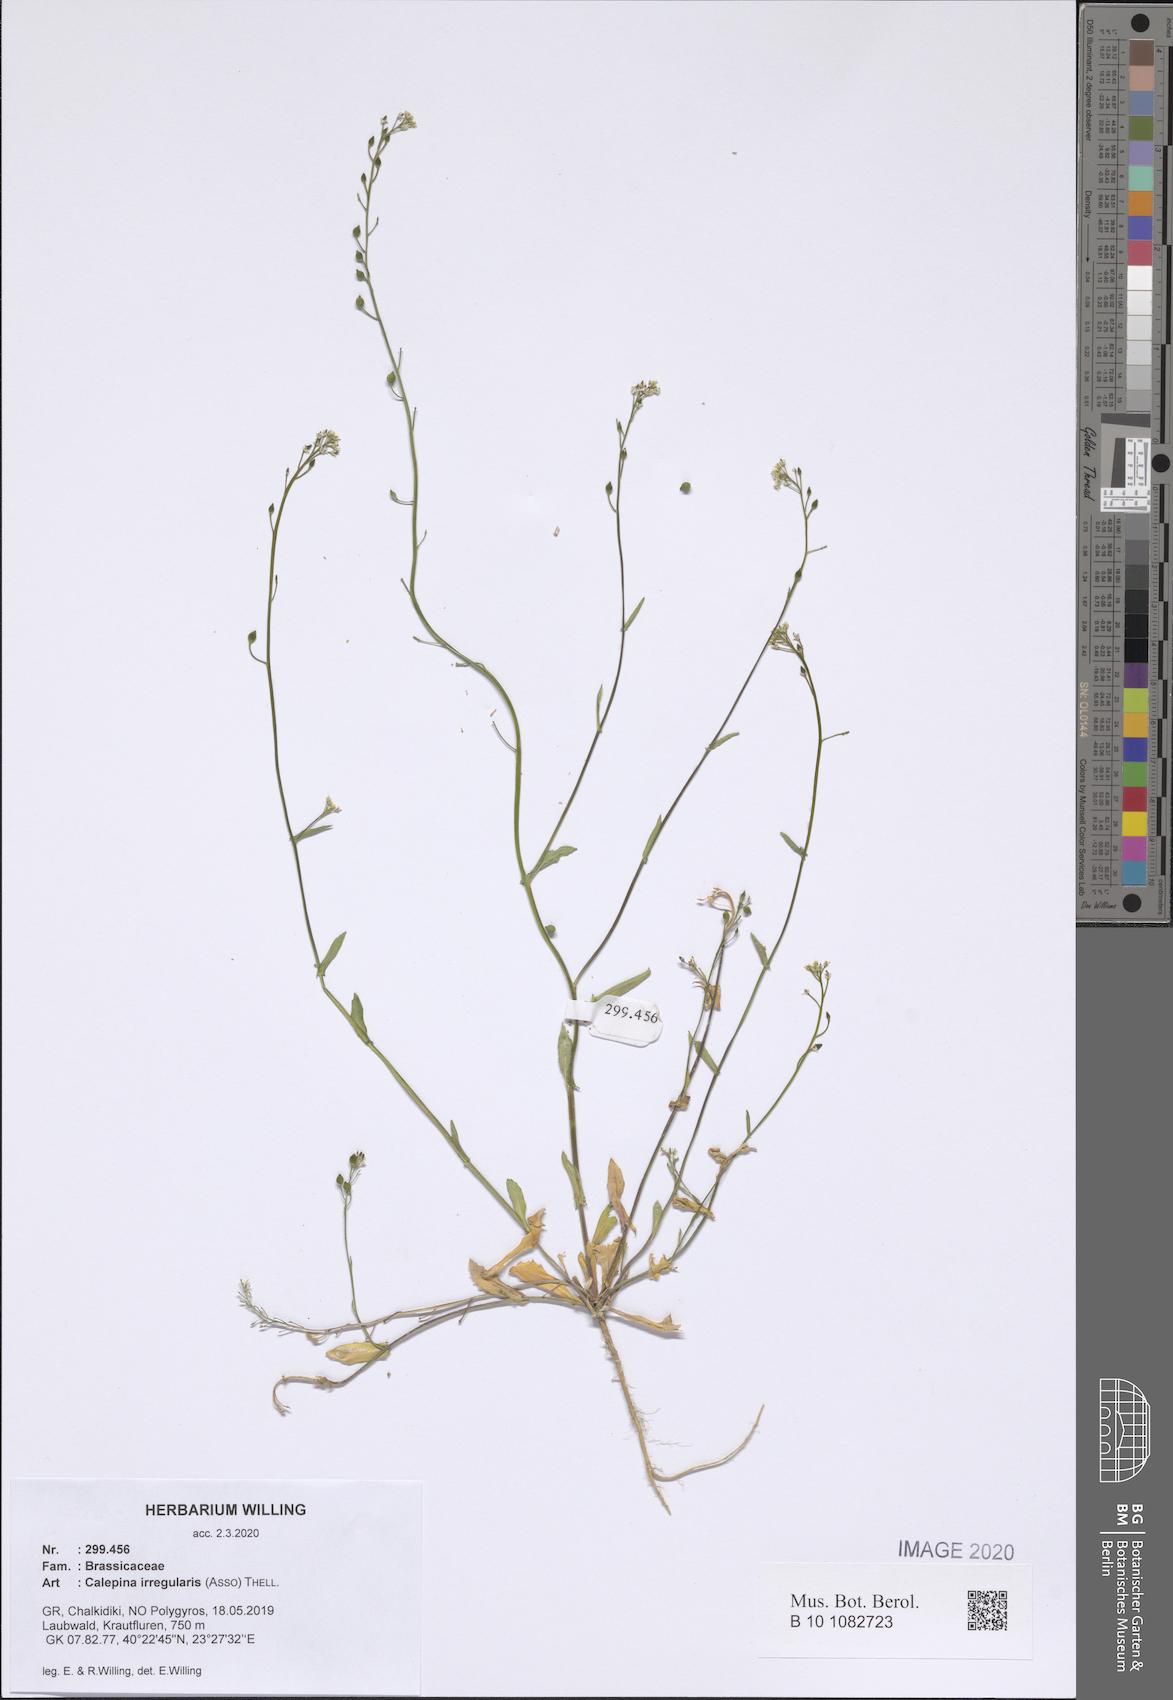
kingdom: Plantae
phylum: Tracheophyta
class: Magnoliopsida
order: Brassicales
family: Brassicaceae
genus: Calepina
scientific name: Calepina irregularis
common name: White ballmustard
